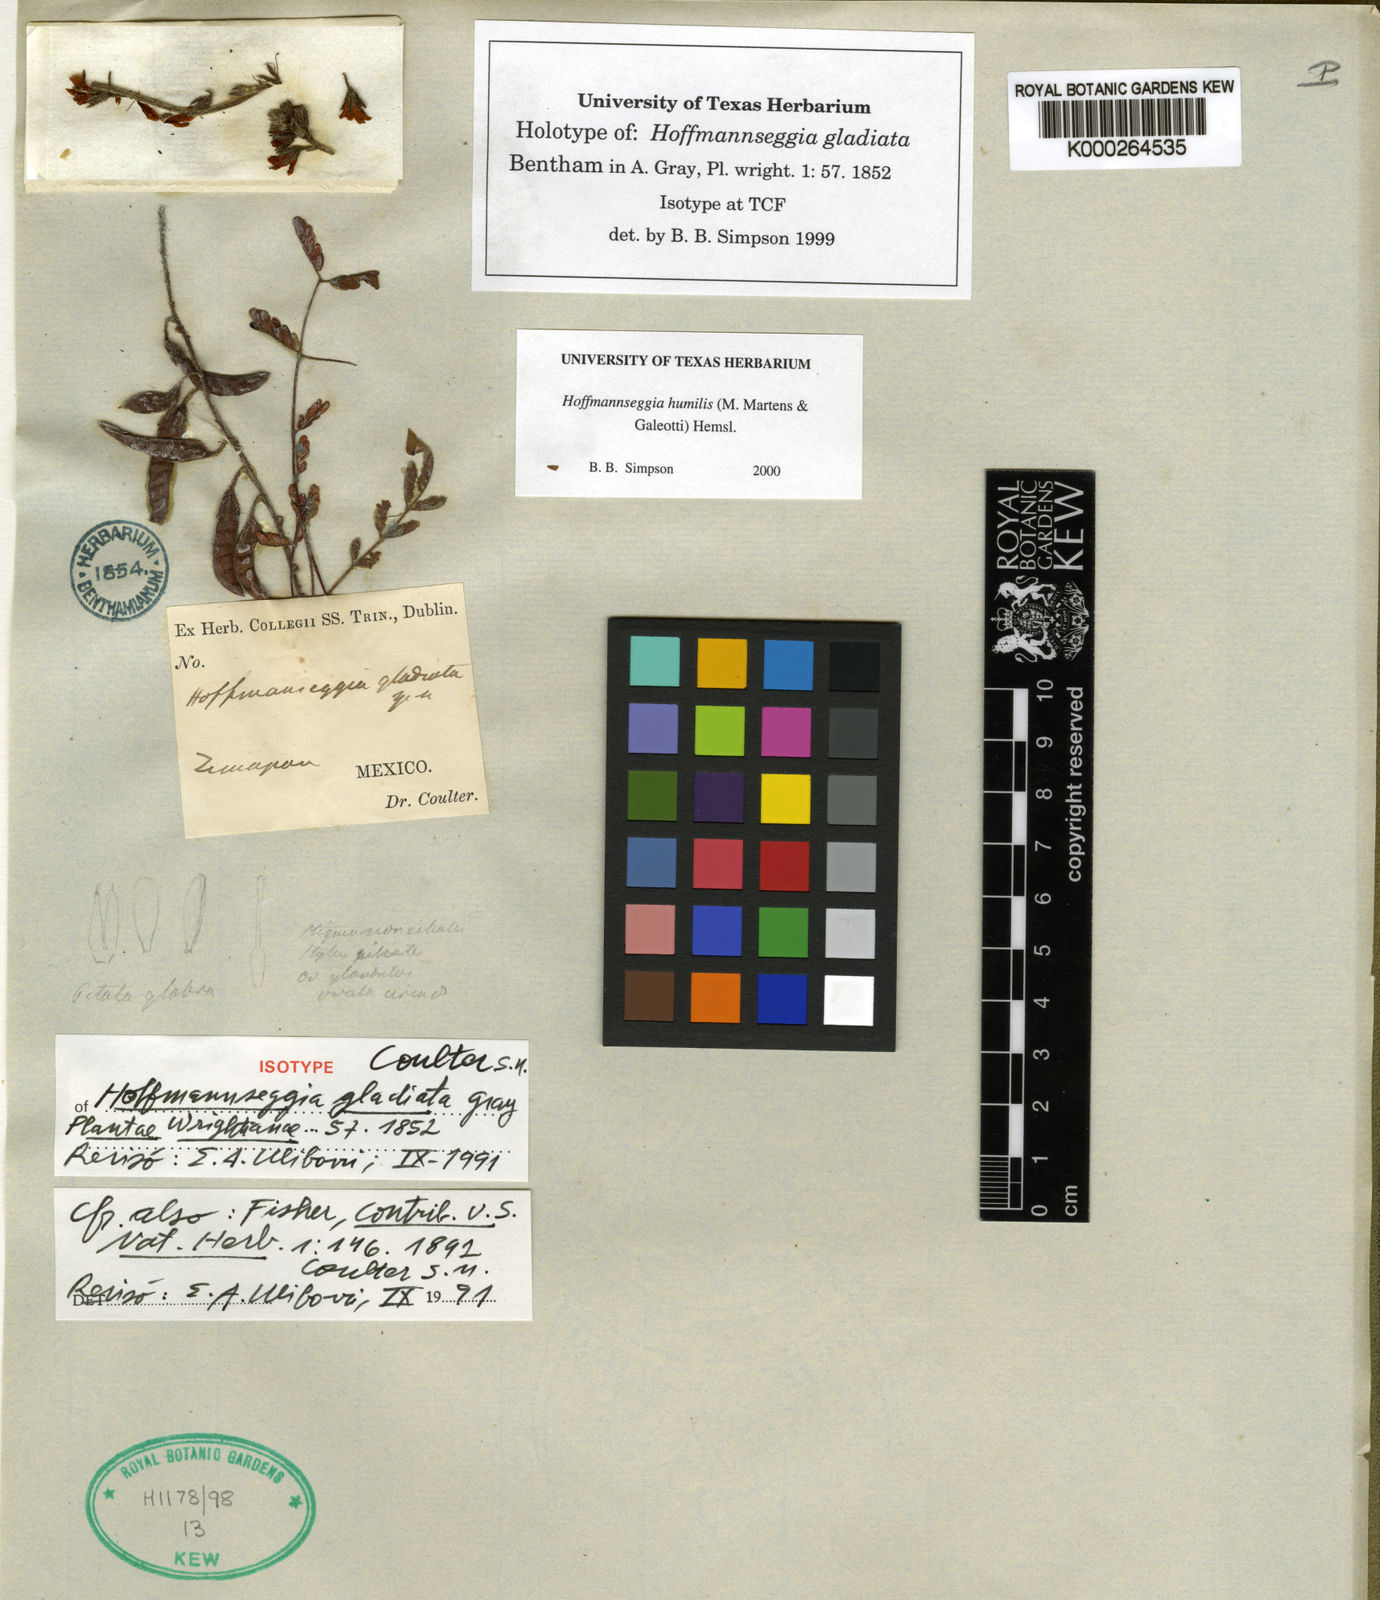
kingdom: Plantae
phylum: Tracheophyta
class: Magnoliopsida
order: Fabales
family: Fabaceae
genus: Hoffmannseggia
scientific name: Hoffmannseggia
